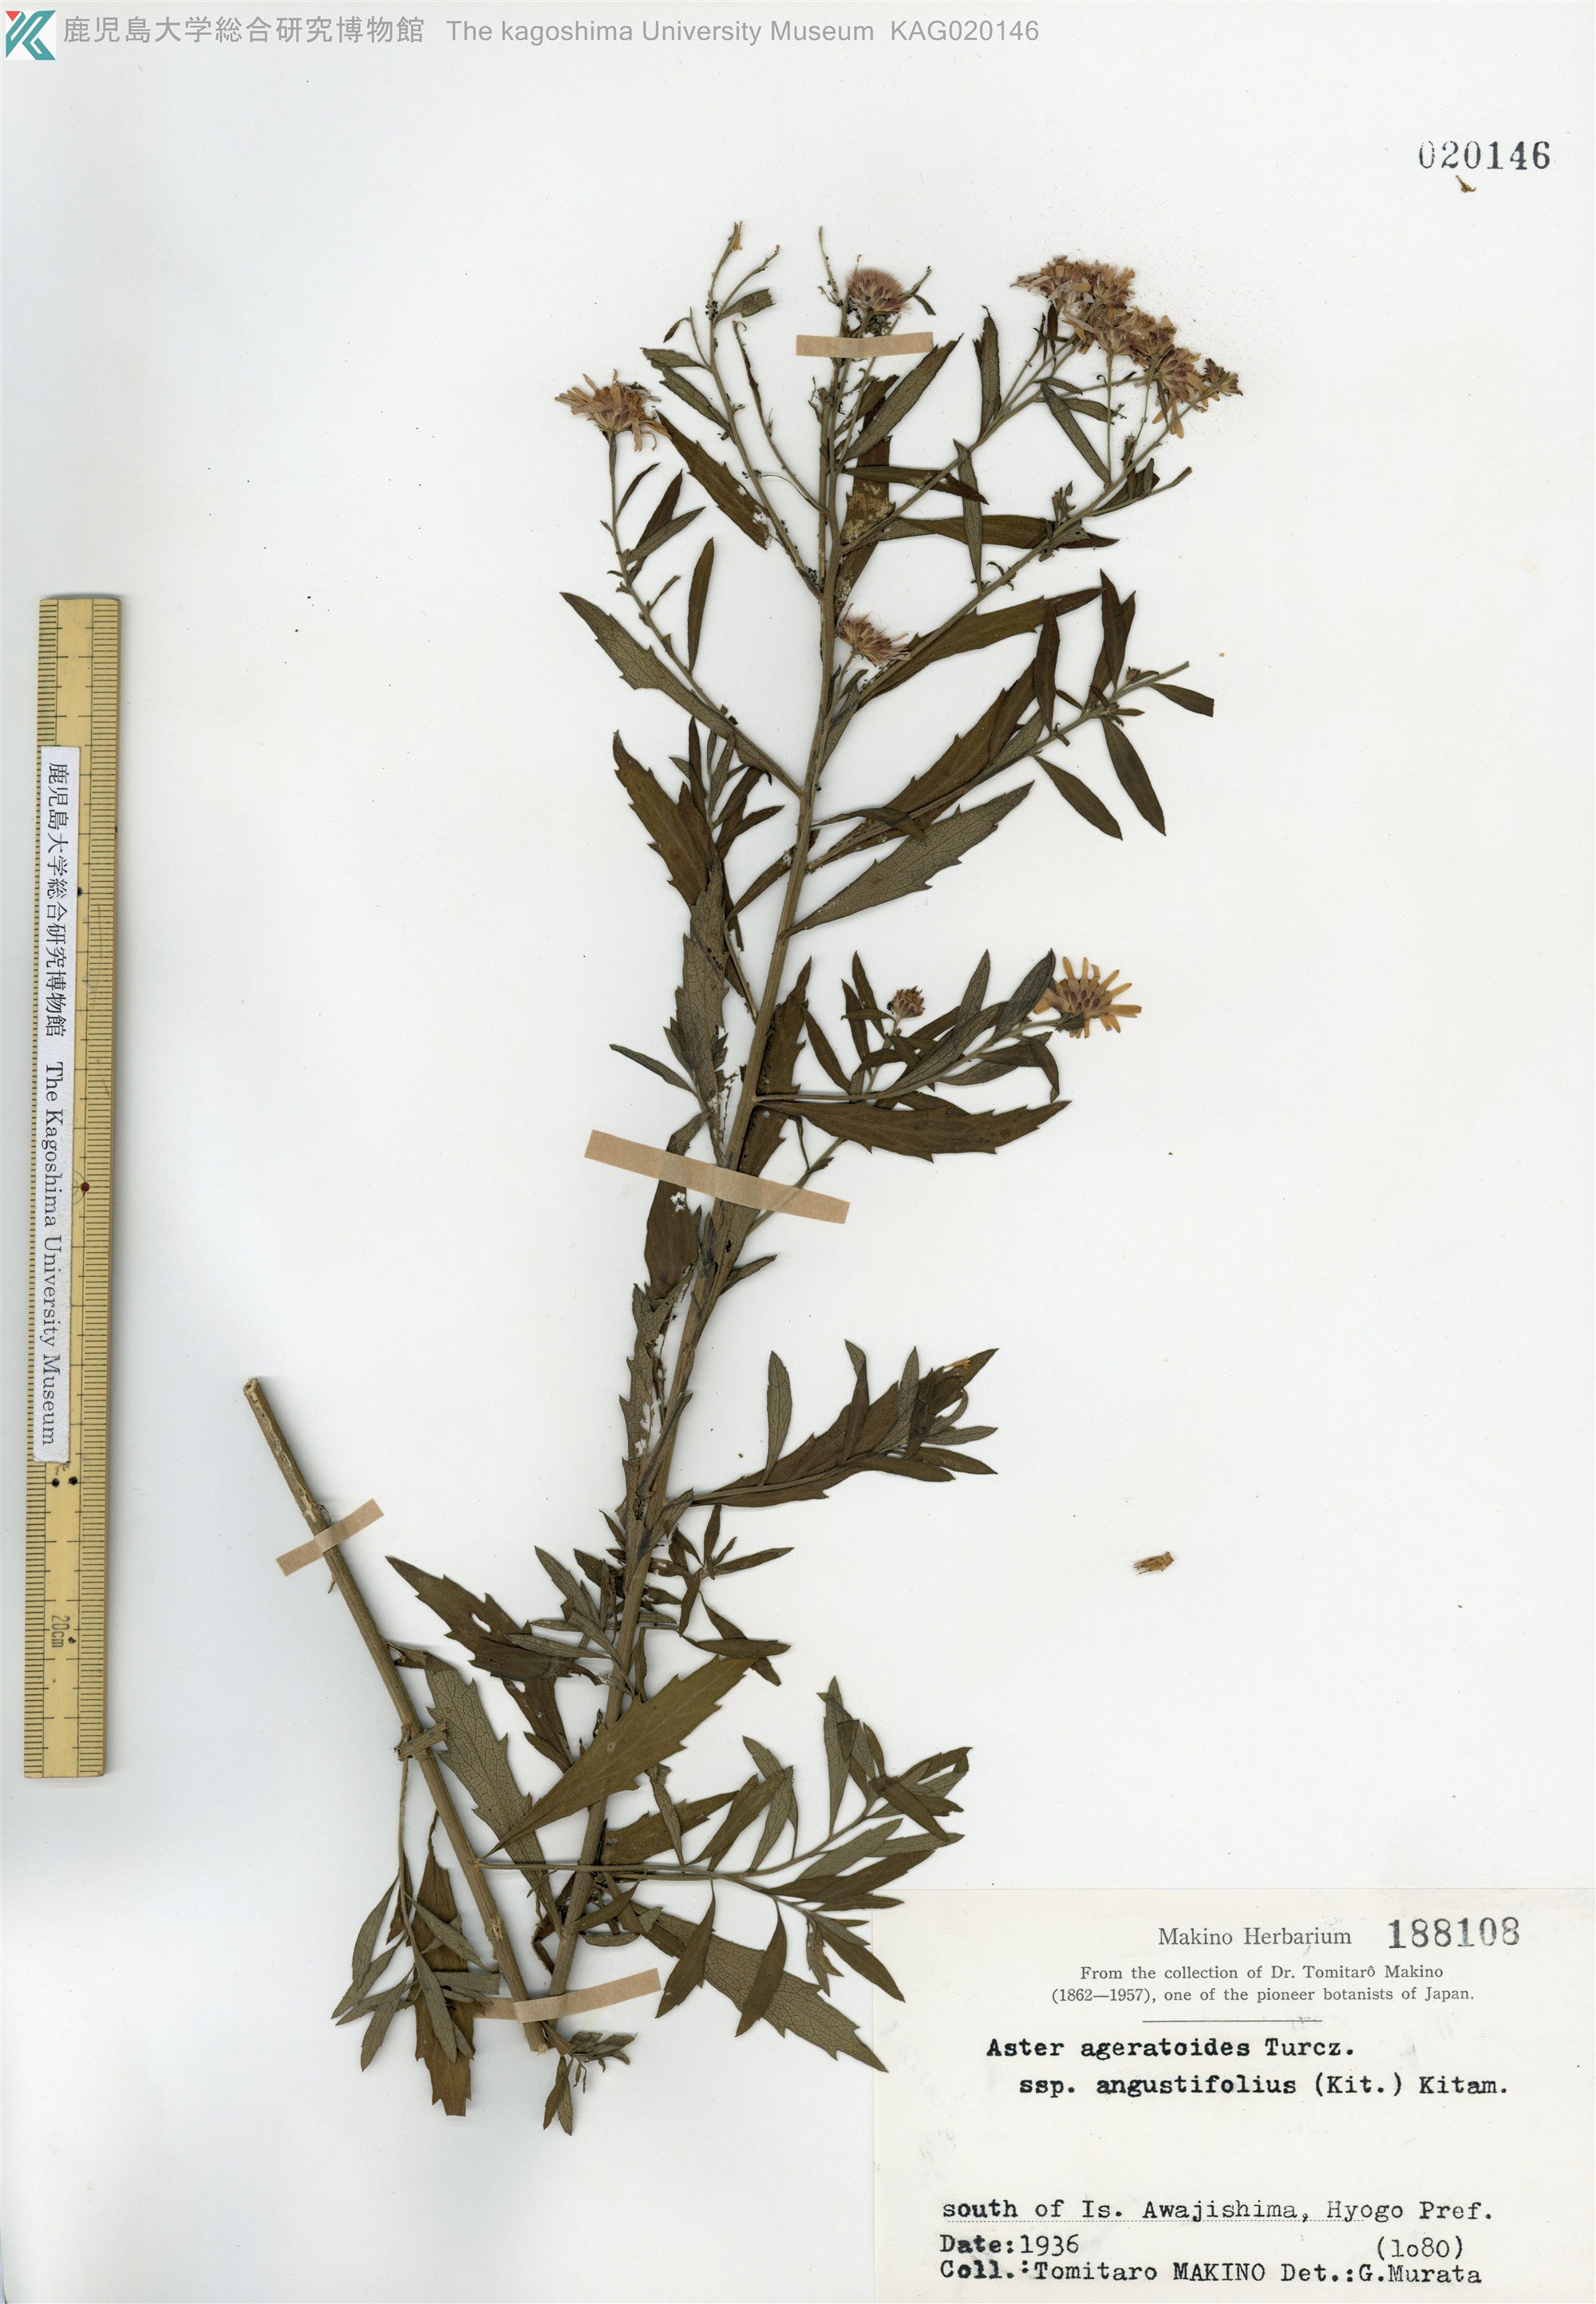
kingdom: Plantae
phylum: Tracheophyta
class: Magnoliopsida
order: Asterales
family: Asteraceae
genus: Aster
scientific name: Aster microcephalus
